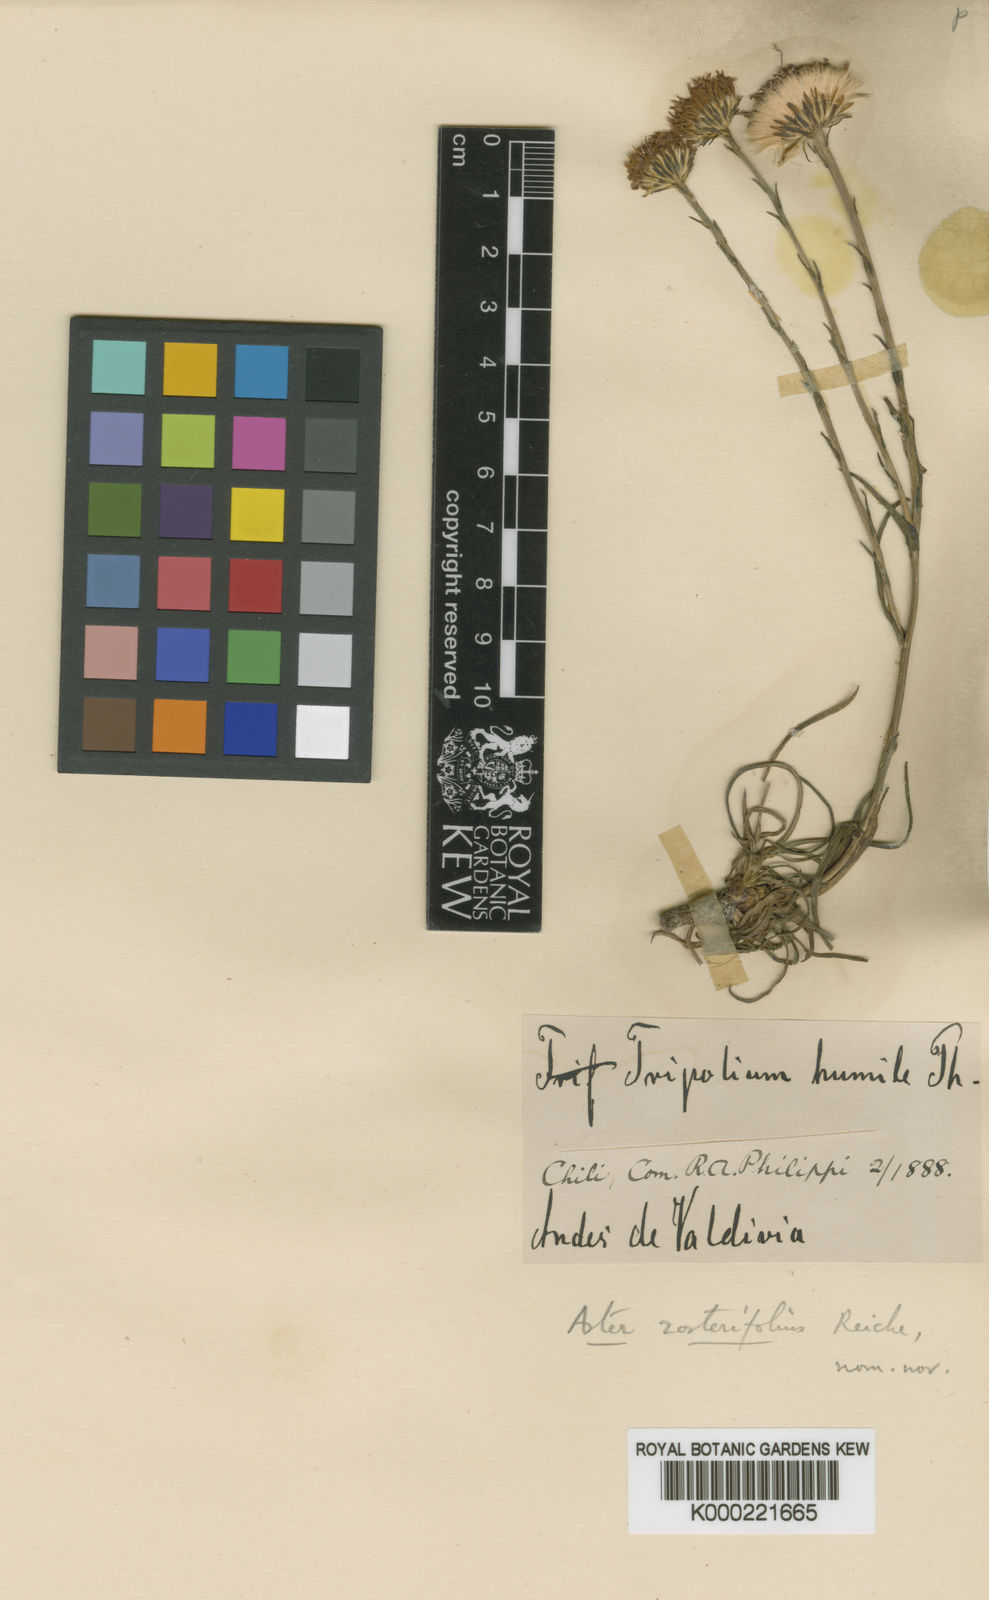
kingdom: Plantae
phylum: Tracheophyta
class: Magnoliopsida
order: Asterales
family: Asteraceae
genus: Symphyotrichum
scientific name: Symphyotrichum vahlii
